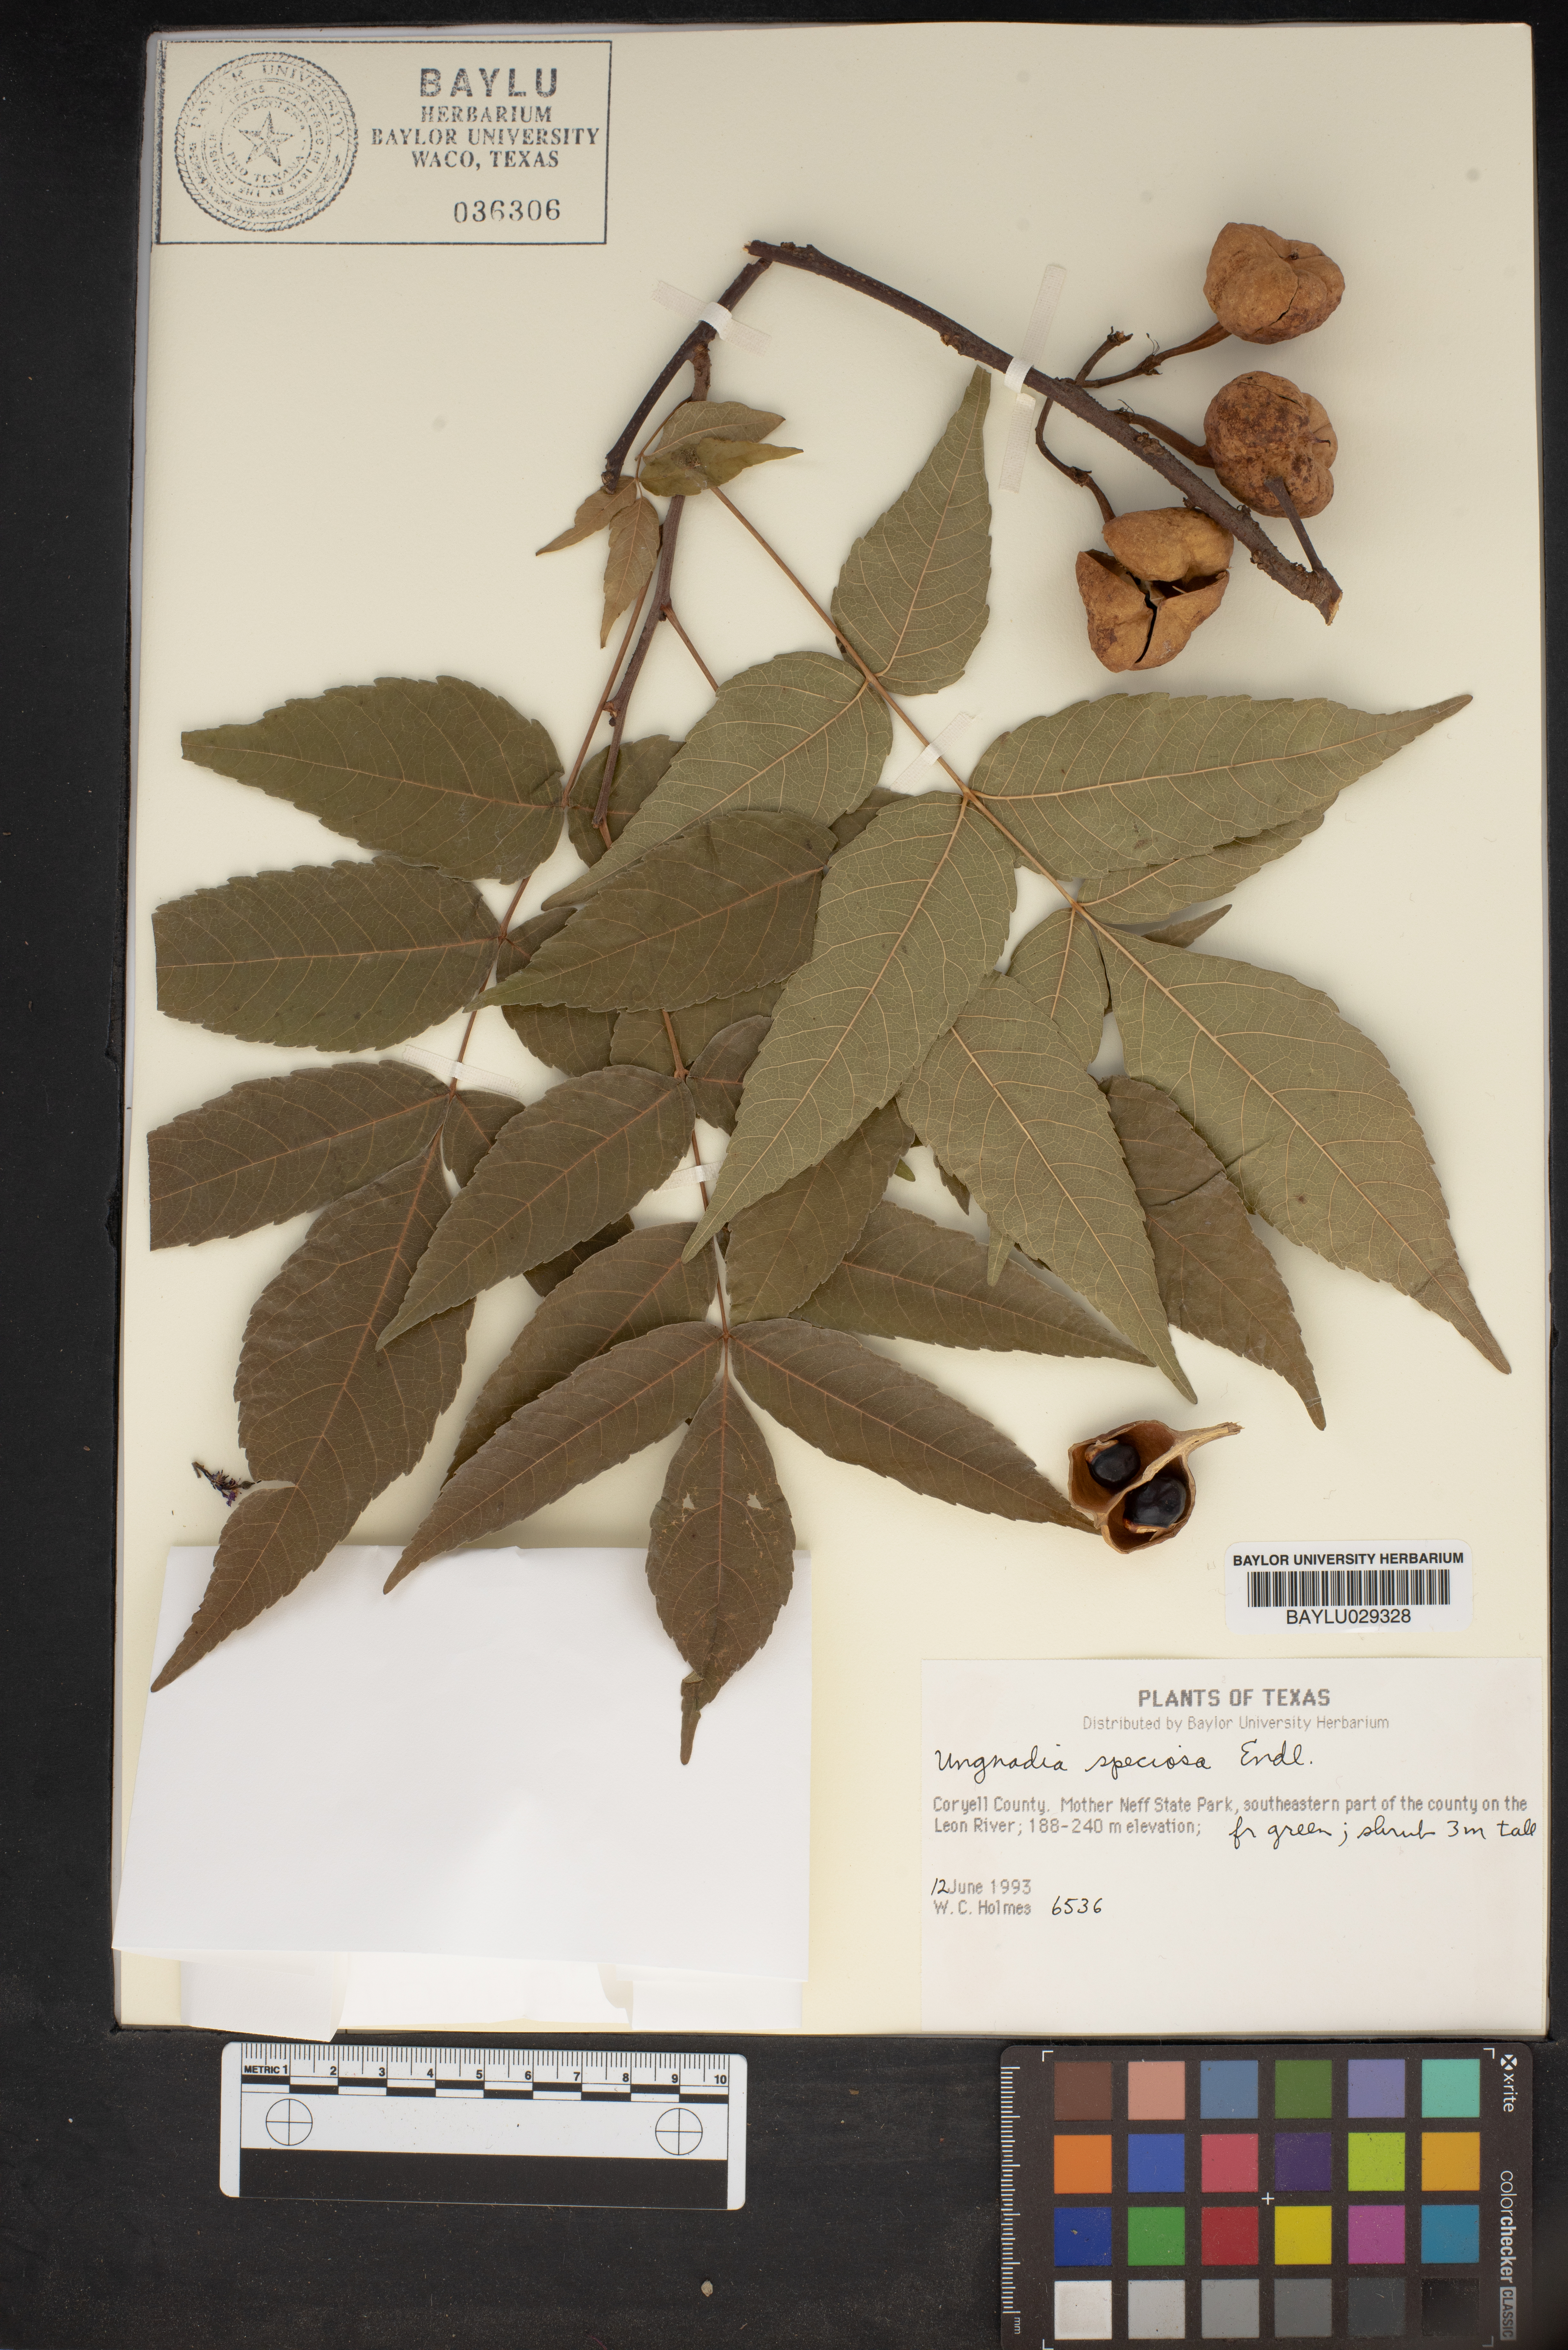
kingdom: Plantae
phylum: Tracheophyta
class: Magnoliopsida
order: Sapindales
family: Sapindaceae
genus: Ungnadia
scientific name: Ungnadia speciosa
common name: Texas-buckeye
